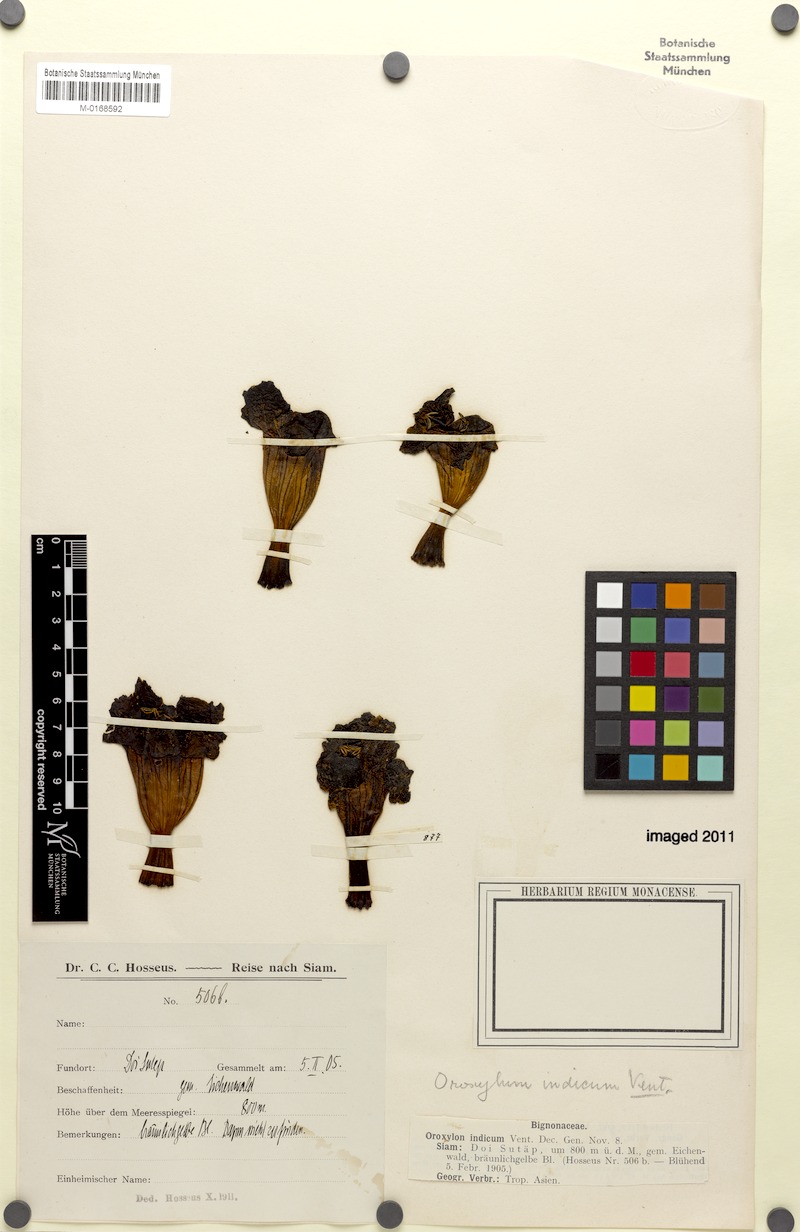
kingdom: Plantae
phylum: Tracheophyta
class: Magnoliopsida
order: Lamiales
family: Bignoniaceae
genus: Oroxylum
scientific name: Oroxylum indicum
